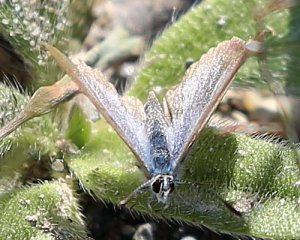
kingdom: Animalia
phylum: Arthropoda
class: Insecta
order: Lepidoptera
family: Lycaenidae
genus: Glaucopsyche
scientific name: Glaucopsyche lygdamus
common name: Silvery Blue
